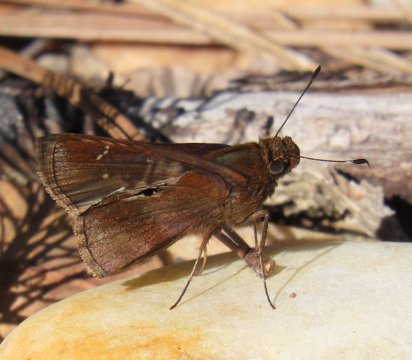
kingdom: Animalia
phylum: Arthropoda
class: Insecta
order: Lepidoptera
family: Hesperiidae
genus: Lerema
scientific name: Lerema accius
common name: Clouded Skipper
